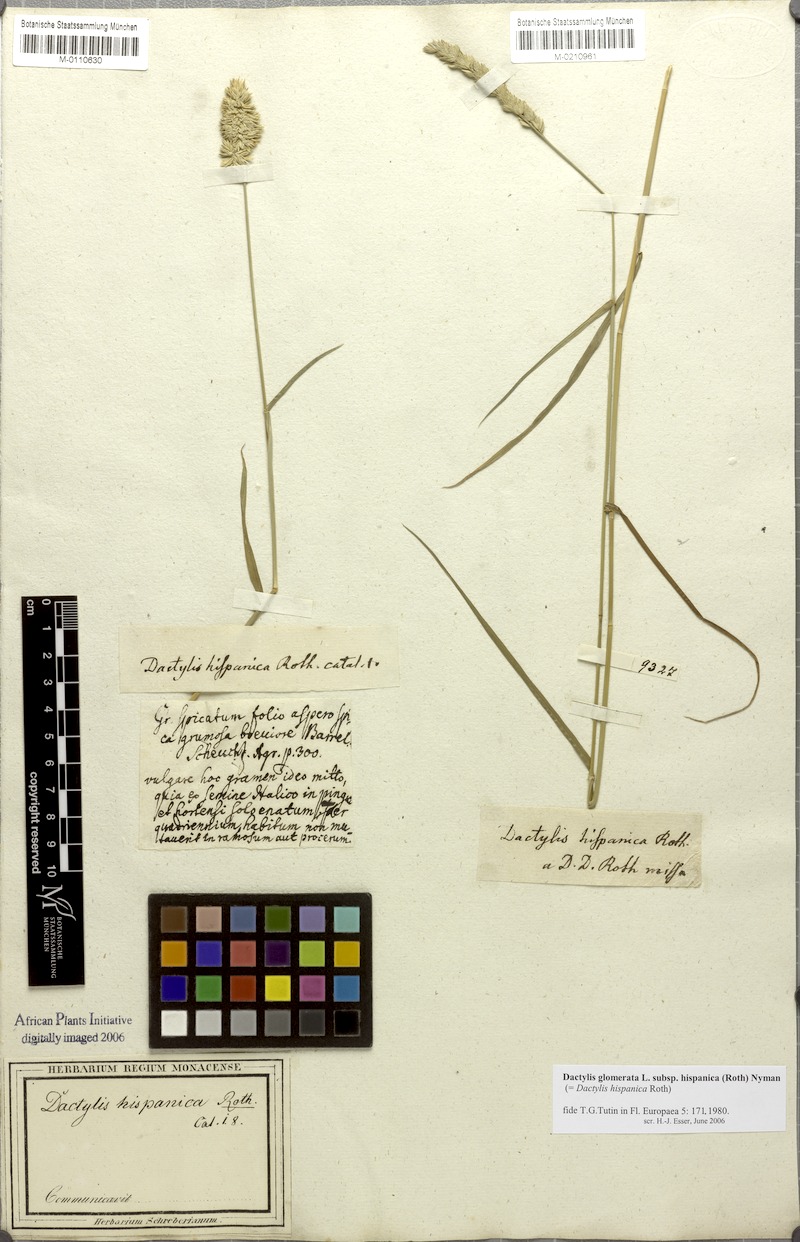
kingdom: Plantae
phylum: Tracheophyta
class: Liliopsida
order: Poales
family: Poaceae
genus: Dactylis
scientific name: Dactylis glomerata
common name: Orchardgrass
